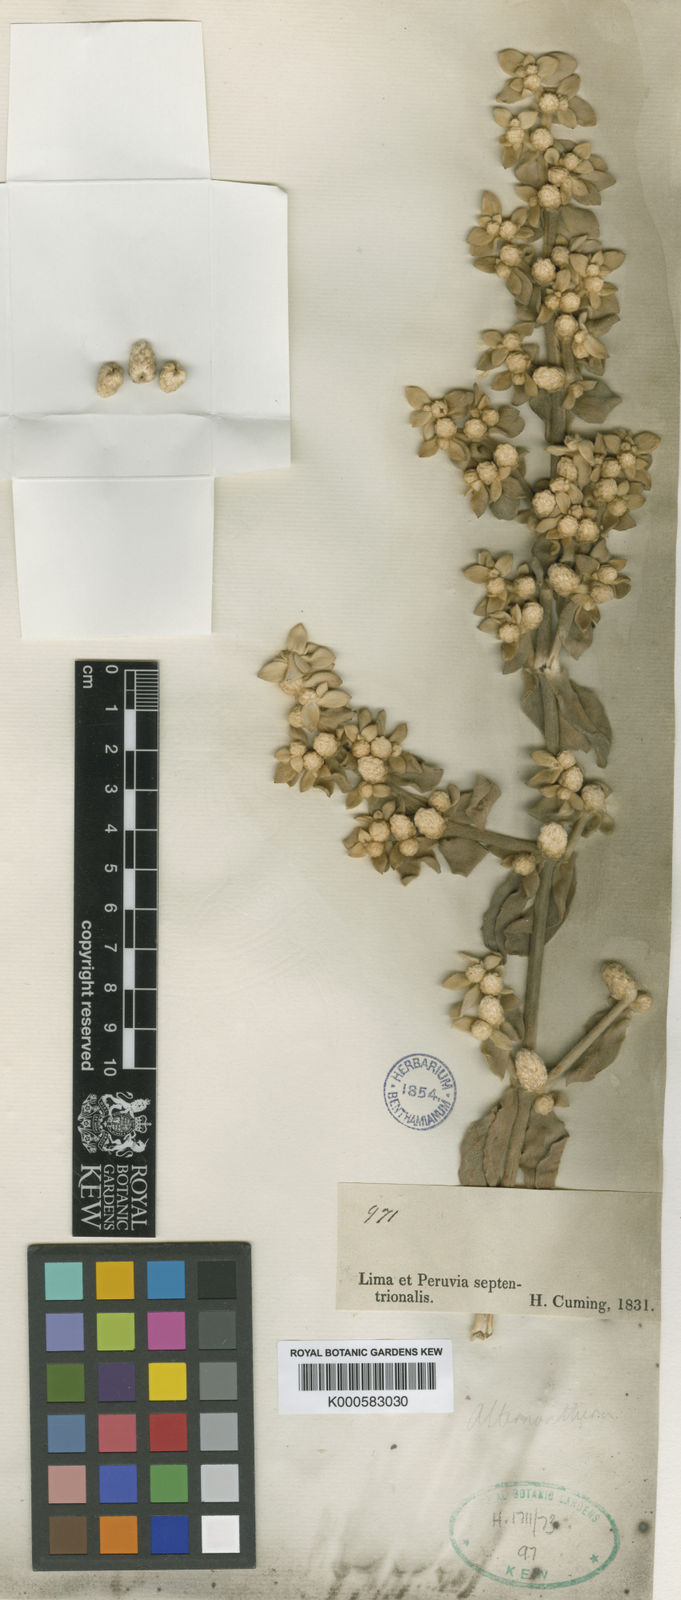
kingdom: Plantae
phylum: Tracheophyta
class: Magnoliopsida
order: Caryophyllales
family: Amaranthaceae
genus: Alternanthera
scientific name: Alternanthera peruviana
